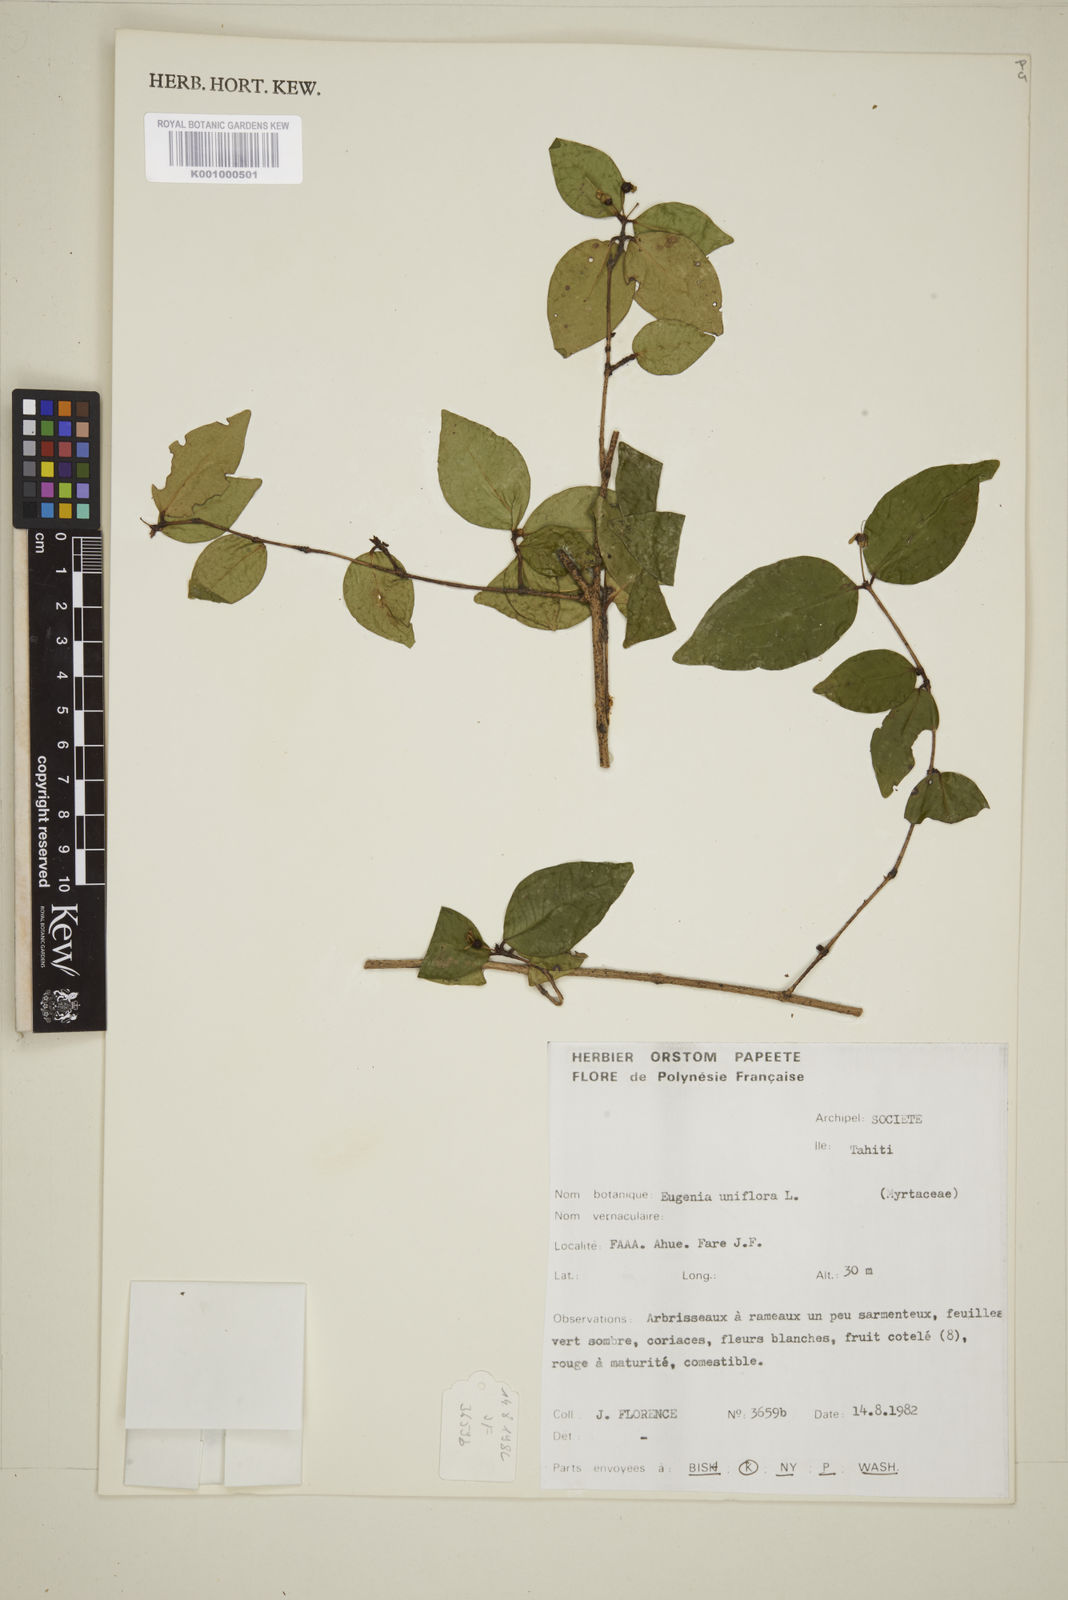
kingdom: Plantae
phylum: Tracheophyta
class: Magnoliopsida
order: Myrtales
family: Myrtaceae
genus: Eugenia
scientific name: Eugenia uniflora
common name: Surinam cherry
